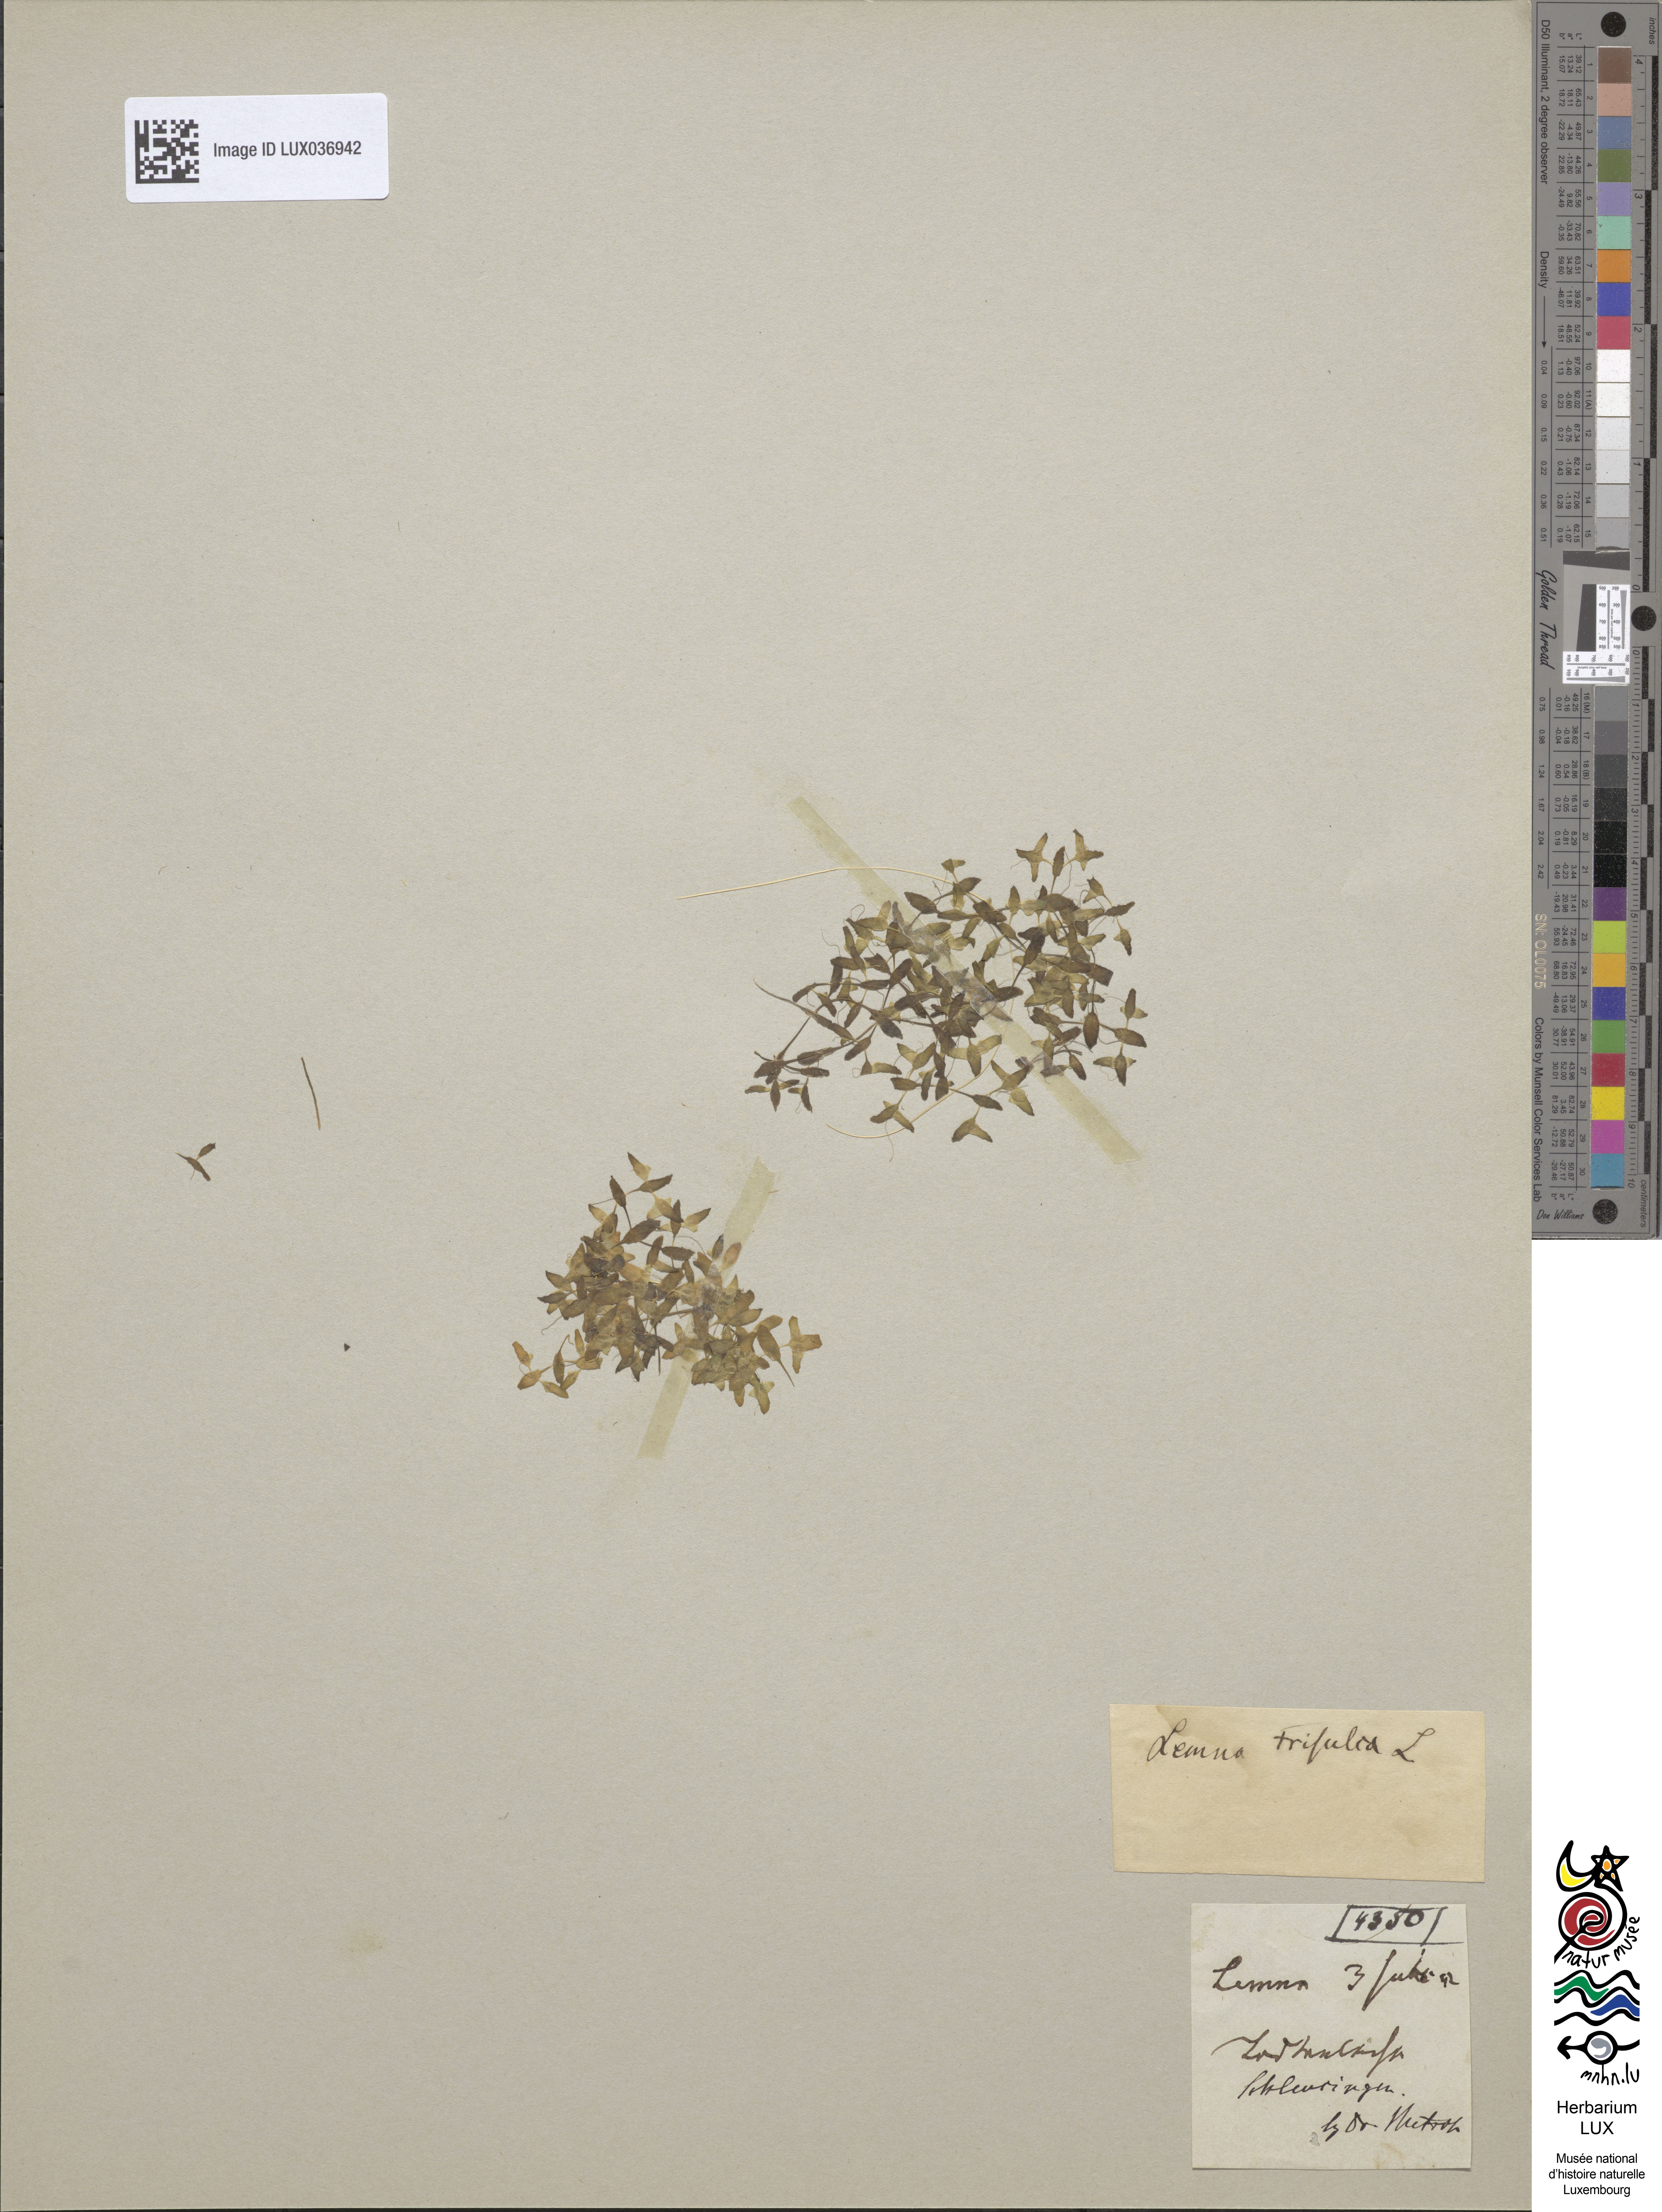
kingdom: Plantae
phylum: Tracheophyta
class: Liliopsida
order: Alismatales
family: Araceae
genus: Lemna
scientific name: Lemna trisulca
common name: Ivy-leaved duckweed
